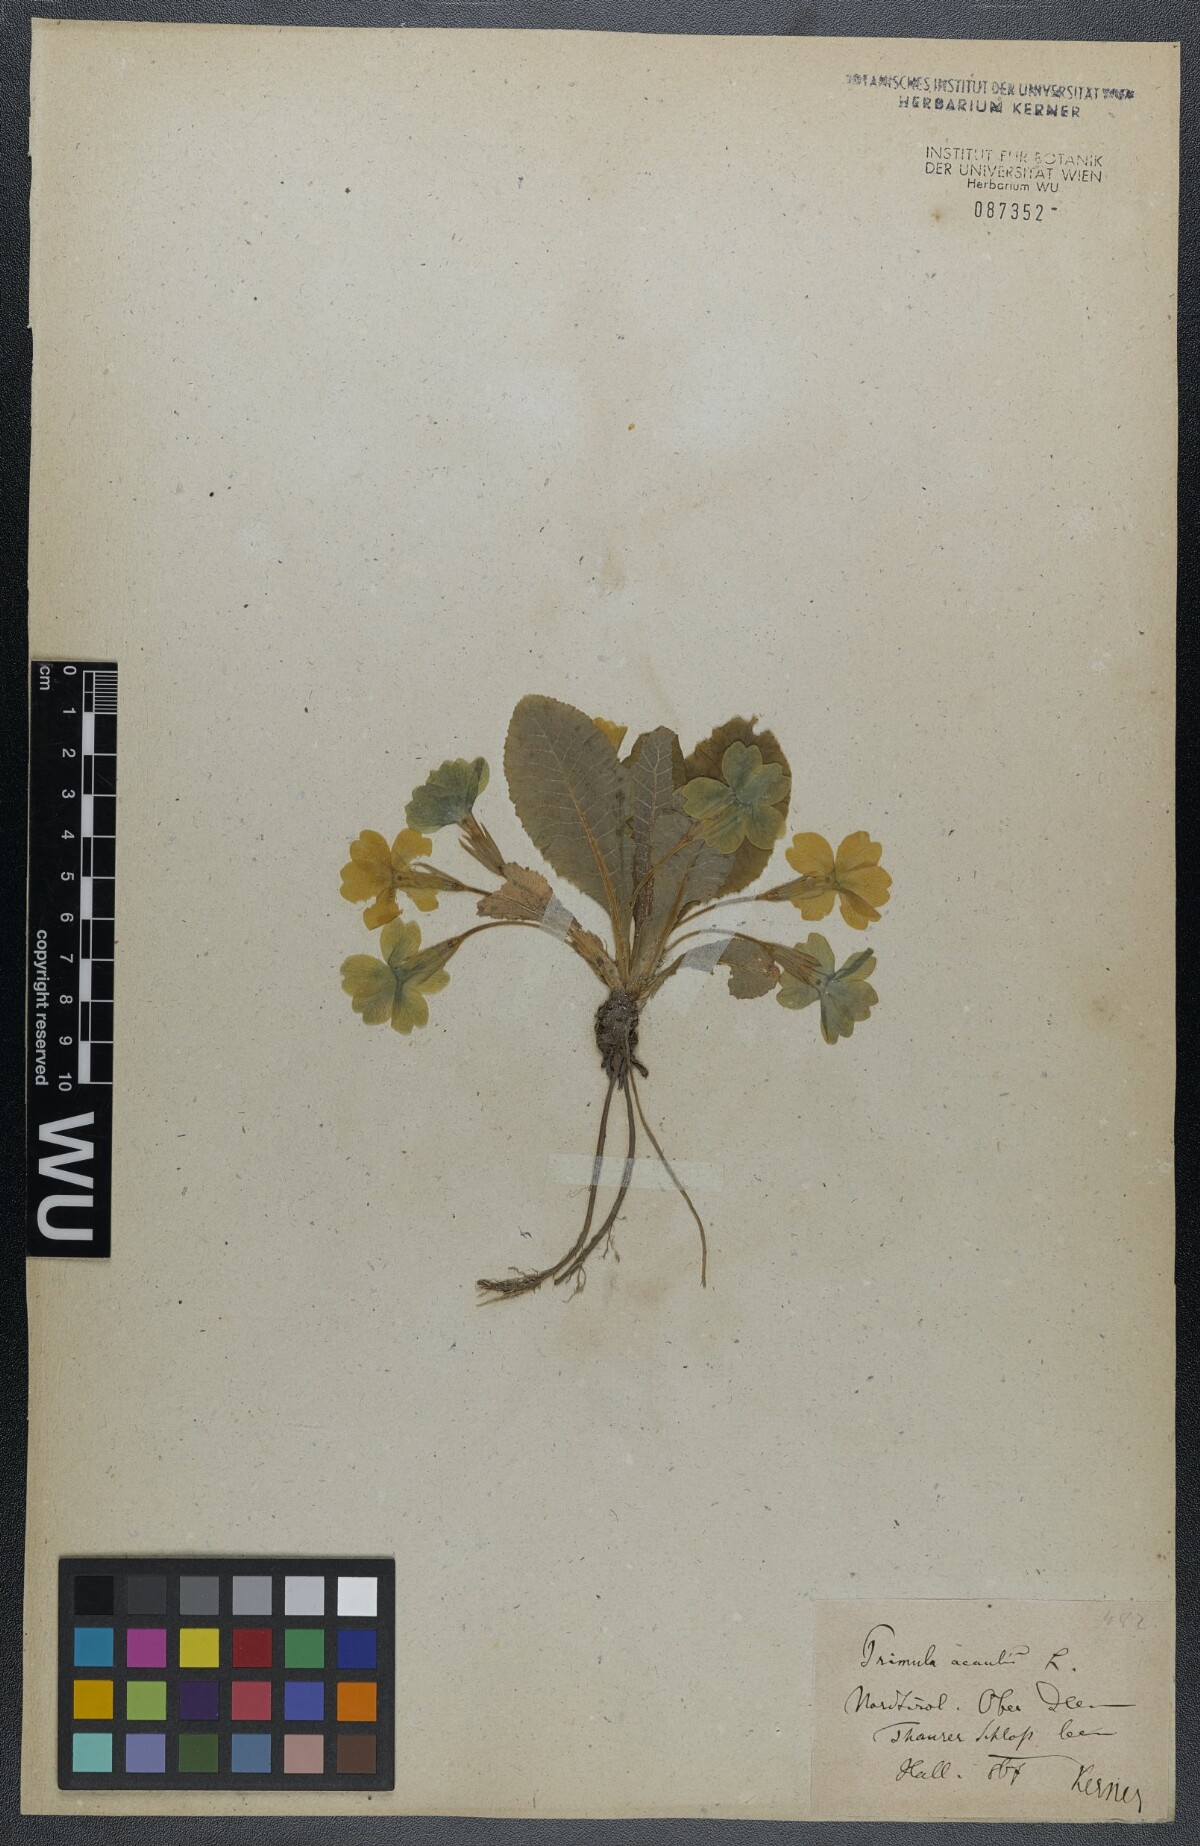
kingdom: Plantae
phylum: Tracheophyta
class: Magnoliopsida
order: Ericales
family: Primulaceae
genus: Primula
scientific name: Primula vulgaris
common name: Primrose
